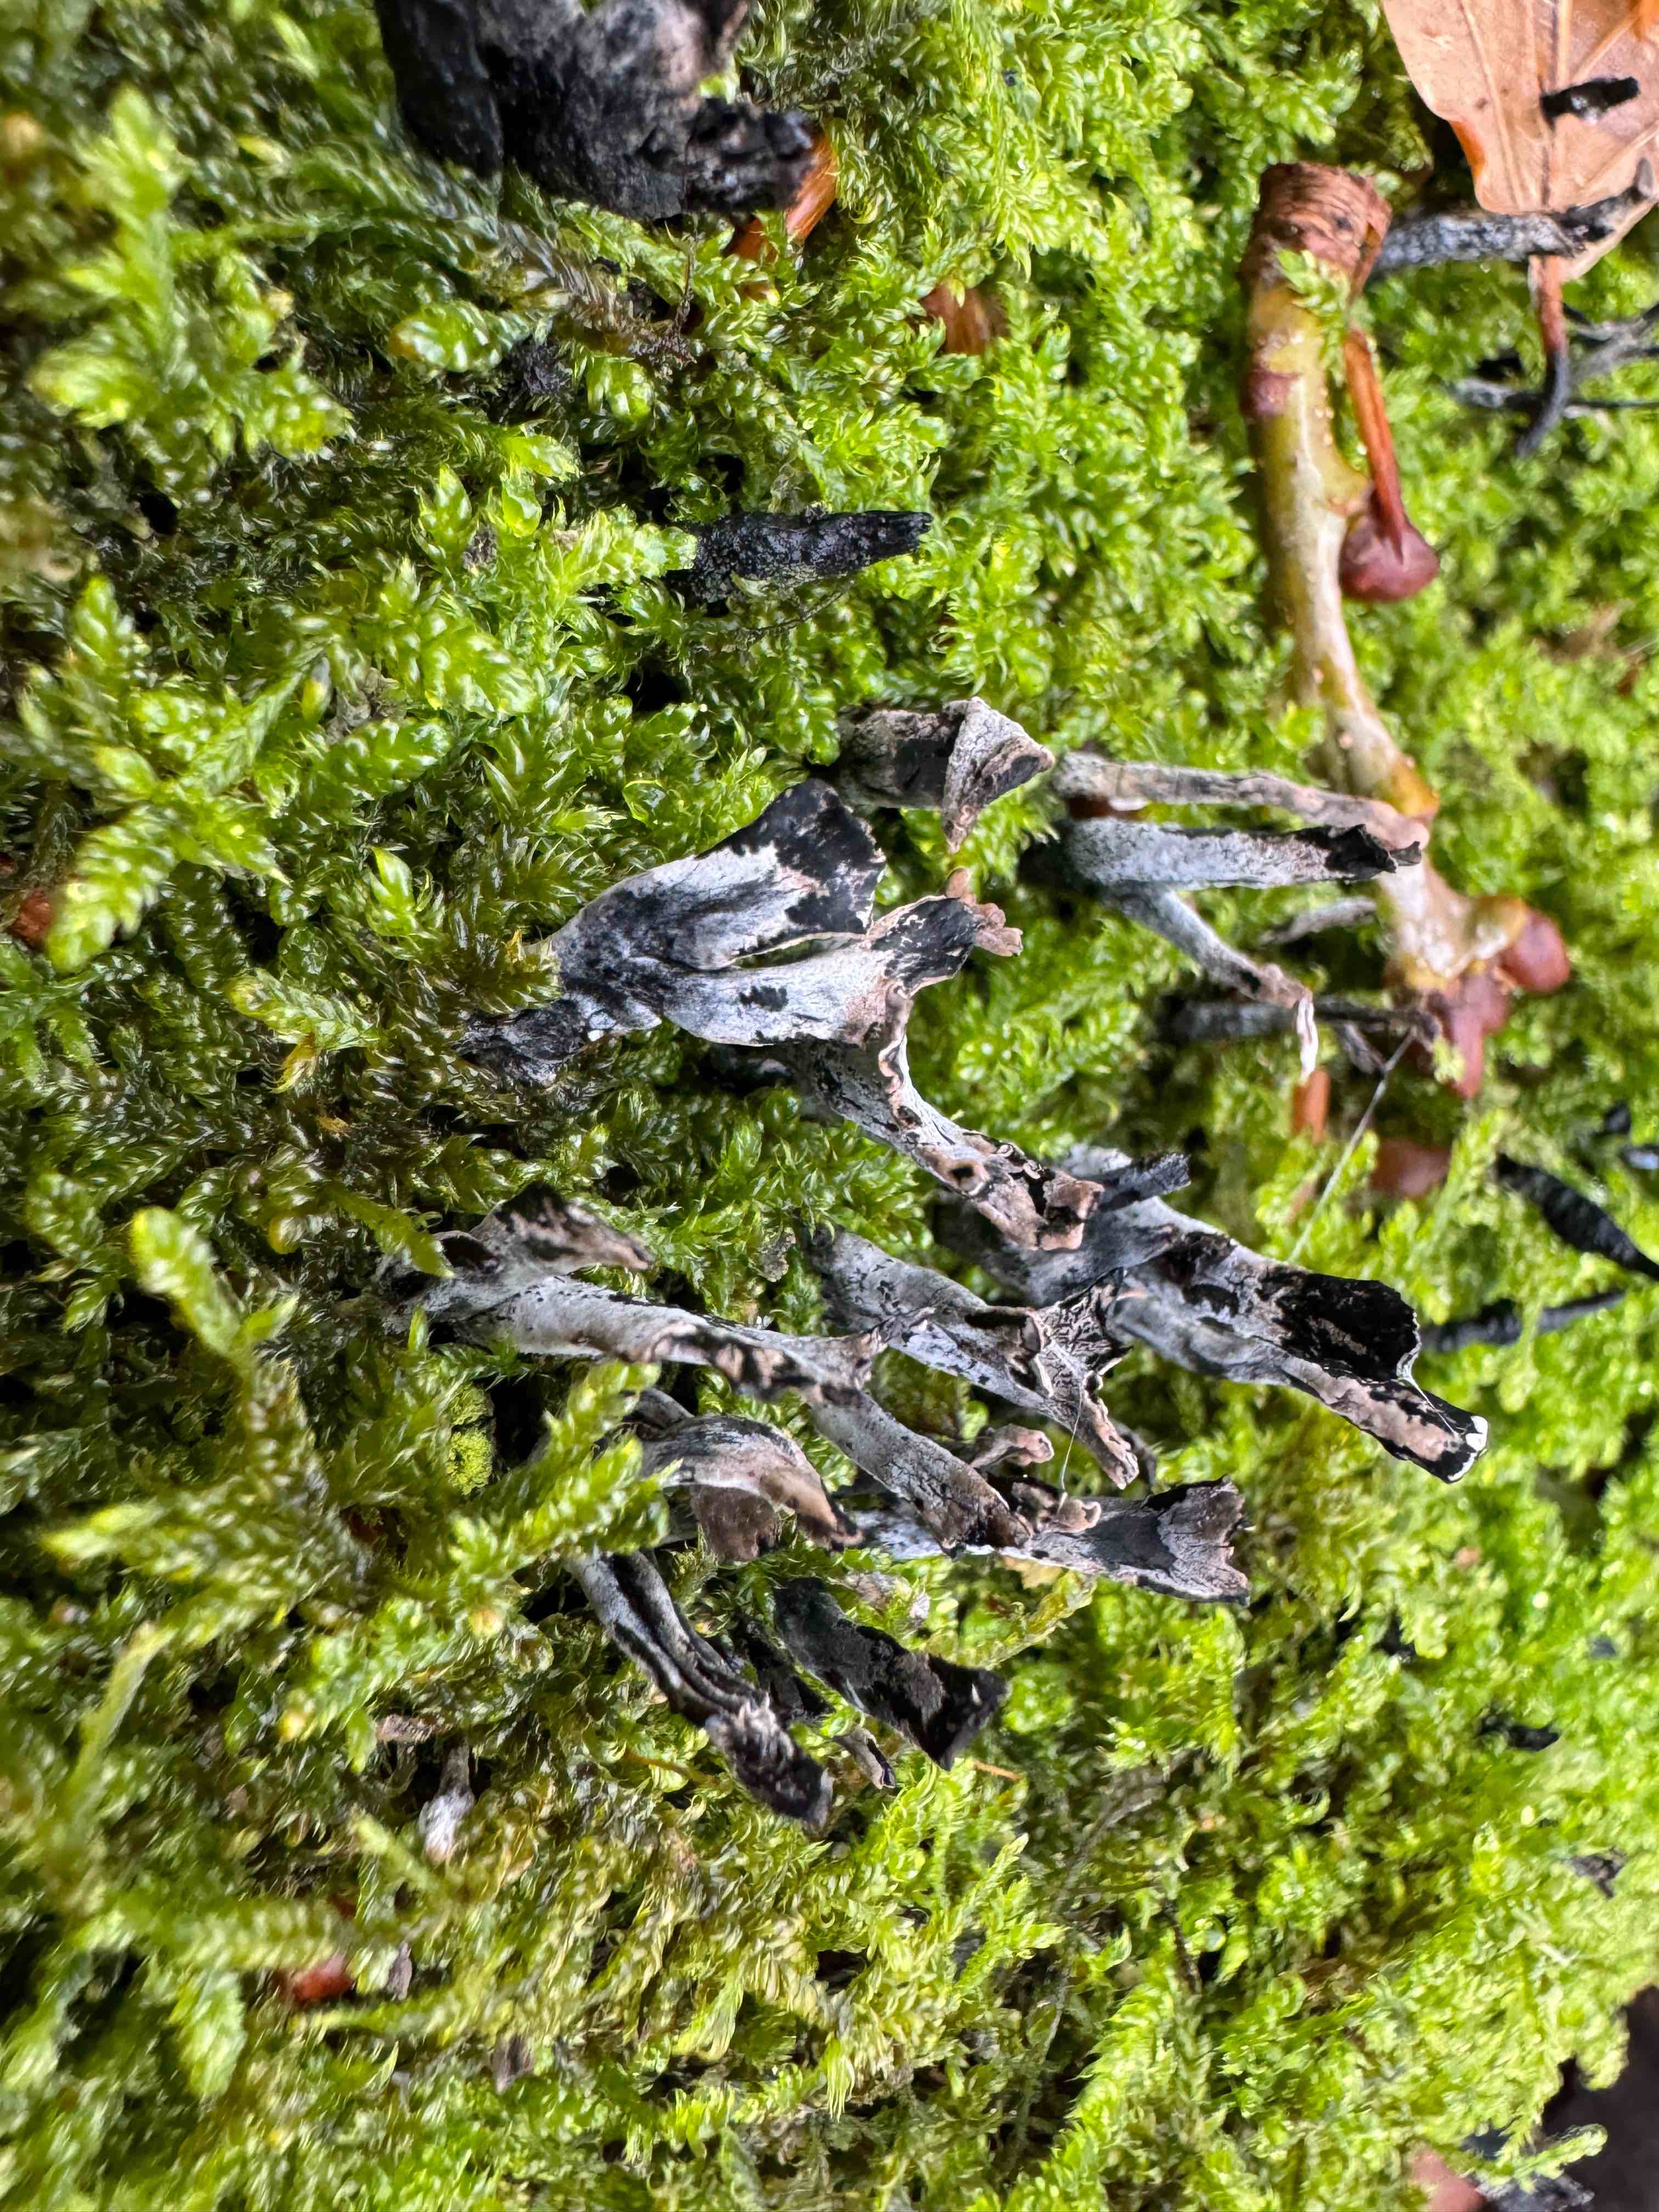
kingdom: Fungi
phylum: Ascomycota
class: Sordariomycetes
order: Xylariales
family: Xylariaceae
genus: Xylaria
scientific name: Xylaria hypoxylon
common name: grenet stødsvamp
